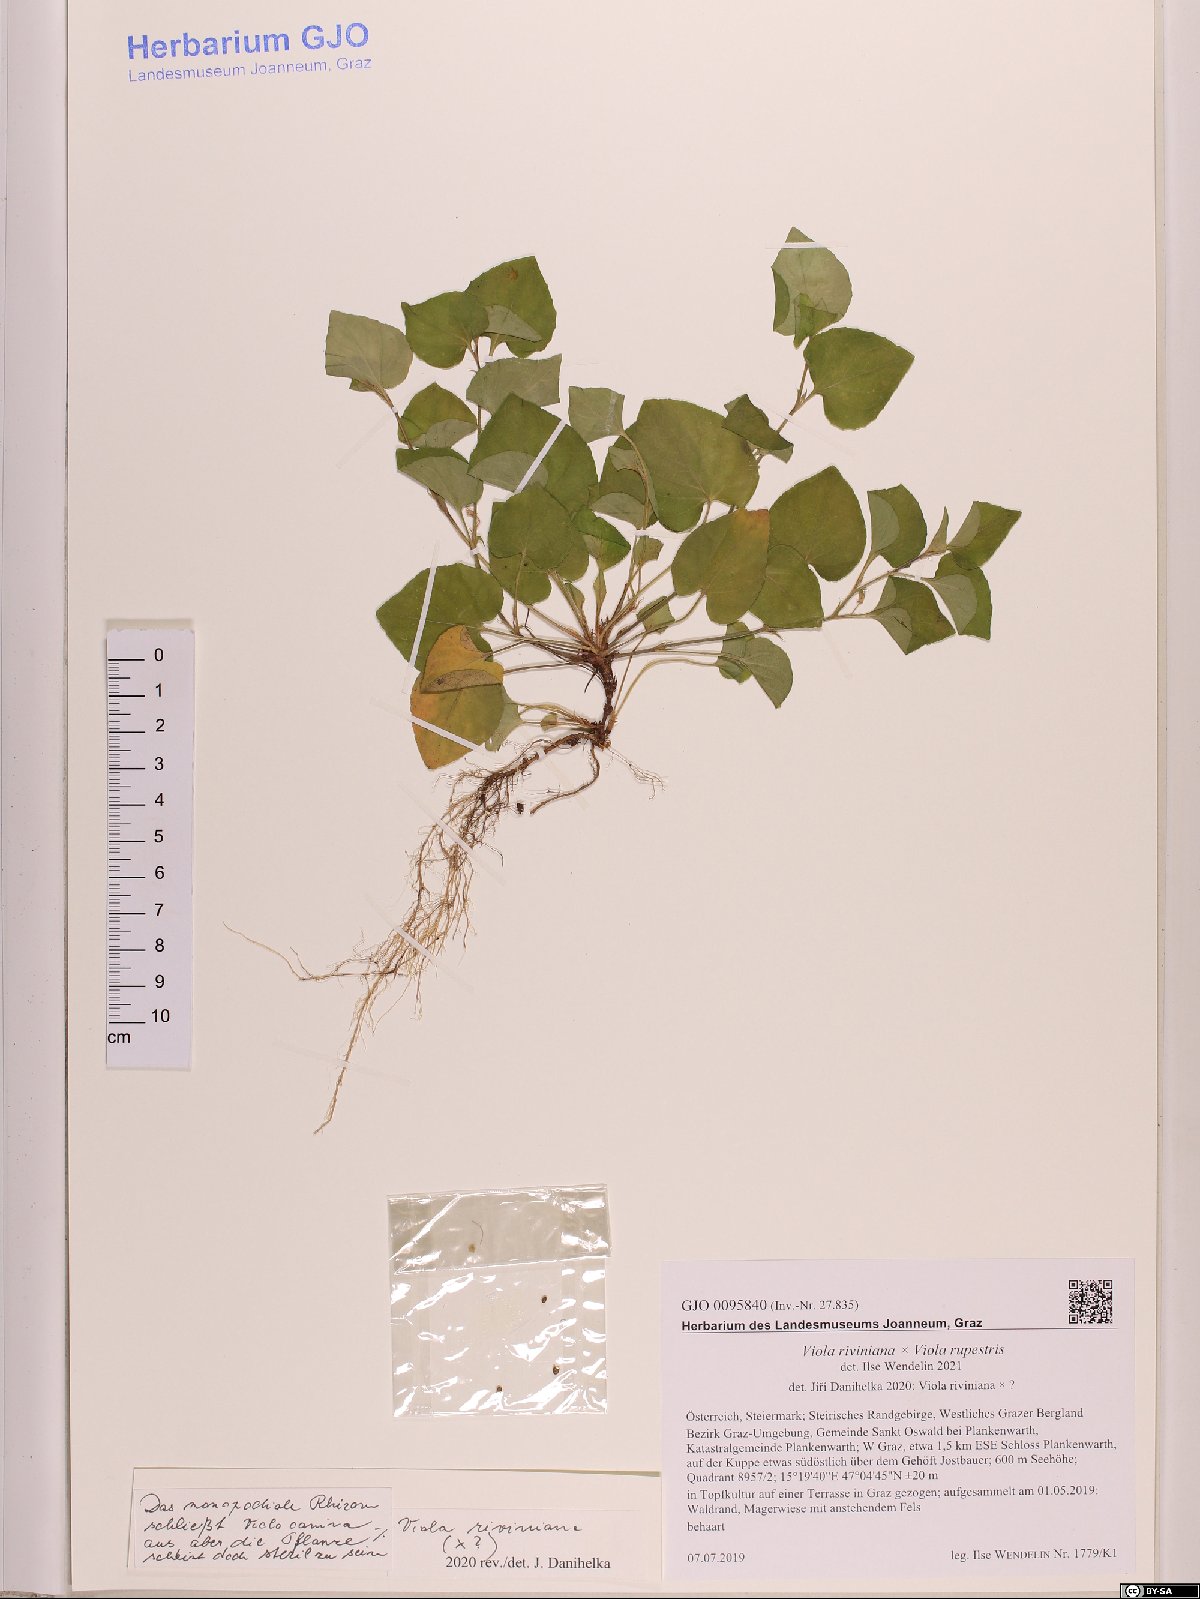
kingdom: Plantae
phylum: Tracheophyta
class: Magnoliopsida
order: Malpighiales
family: Violaceae
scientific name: Violaceae
